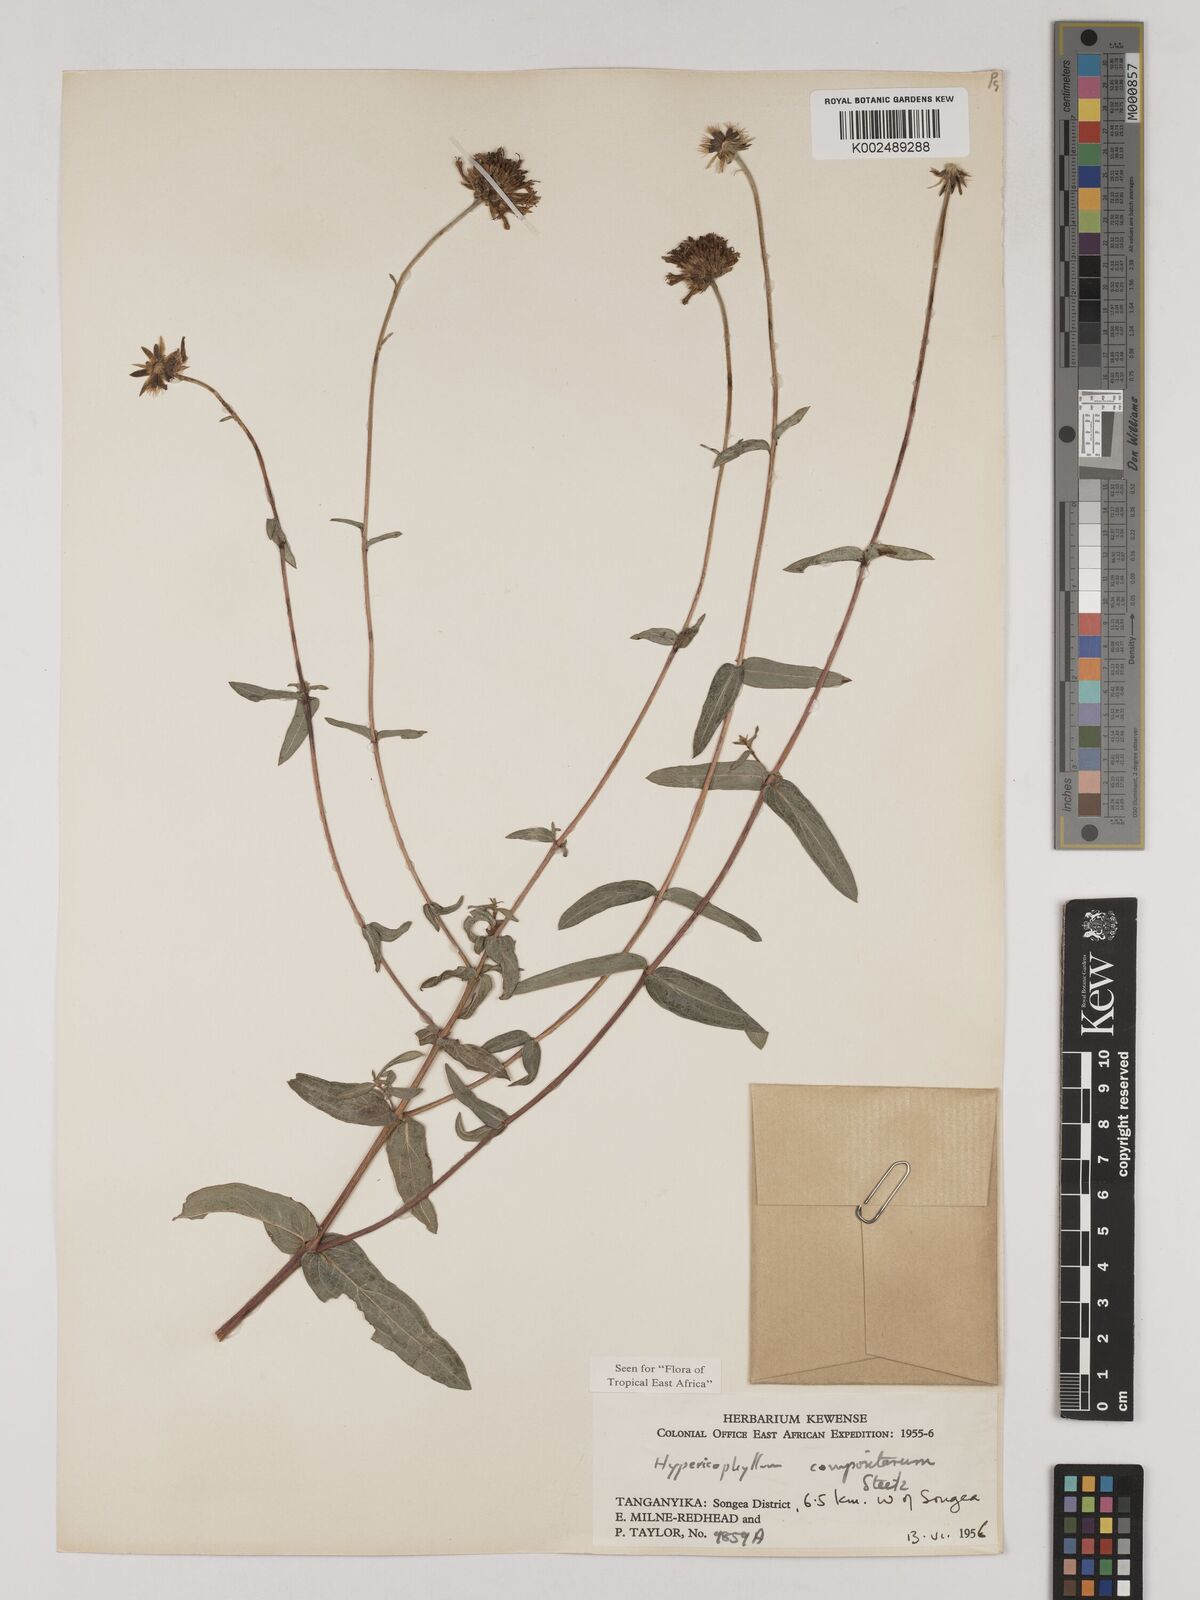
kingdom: Plantae
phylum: Tracheophyta
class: Magnoliopsida
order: Asterales
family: Asteraceae
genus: Hypericophyllum
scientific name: Hypericophyllum compositarum
